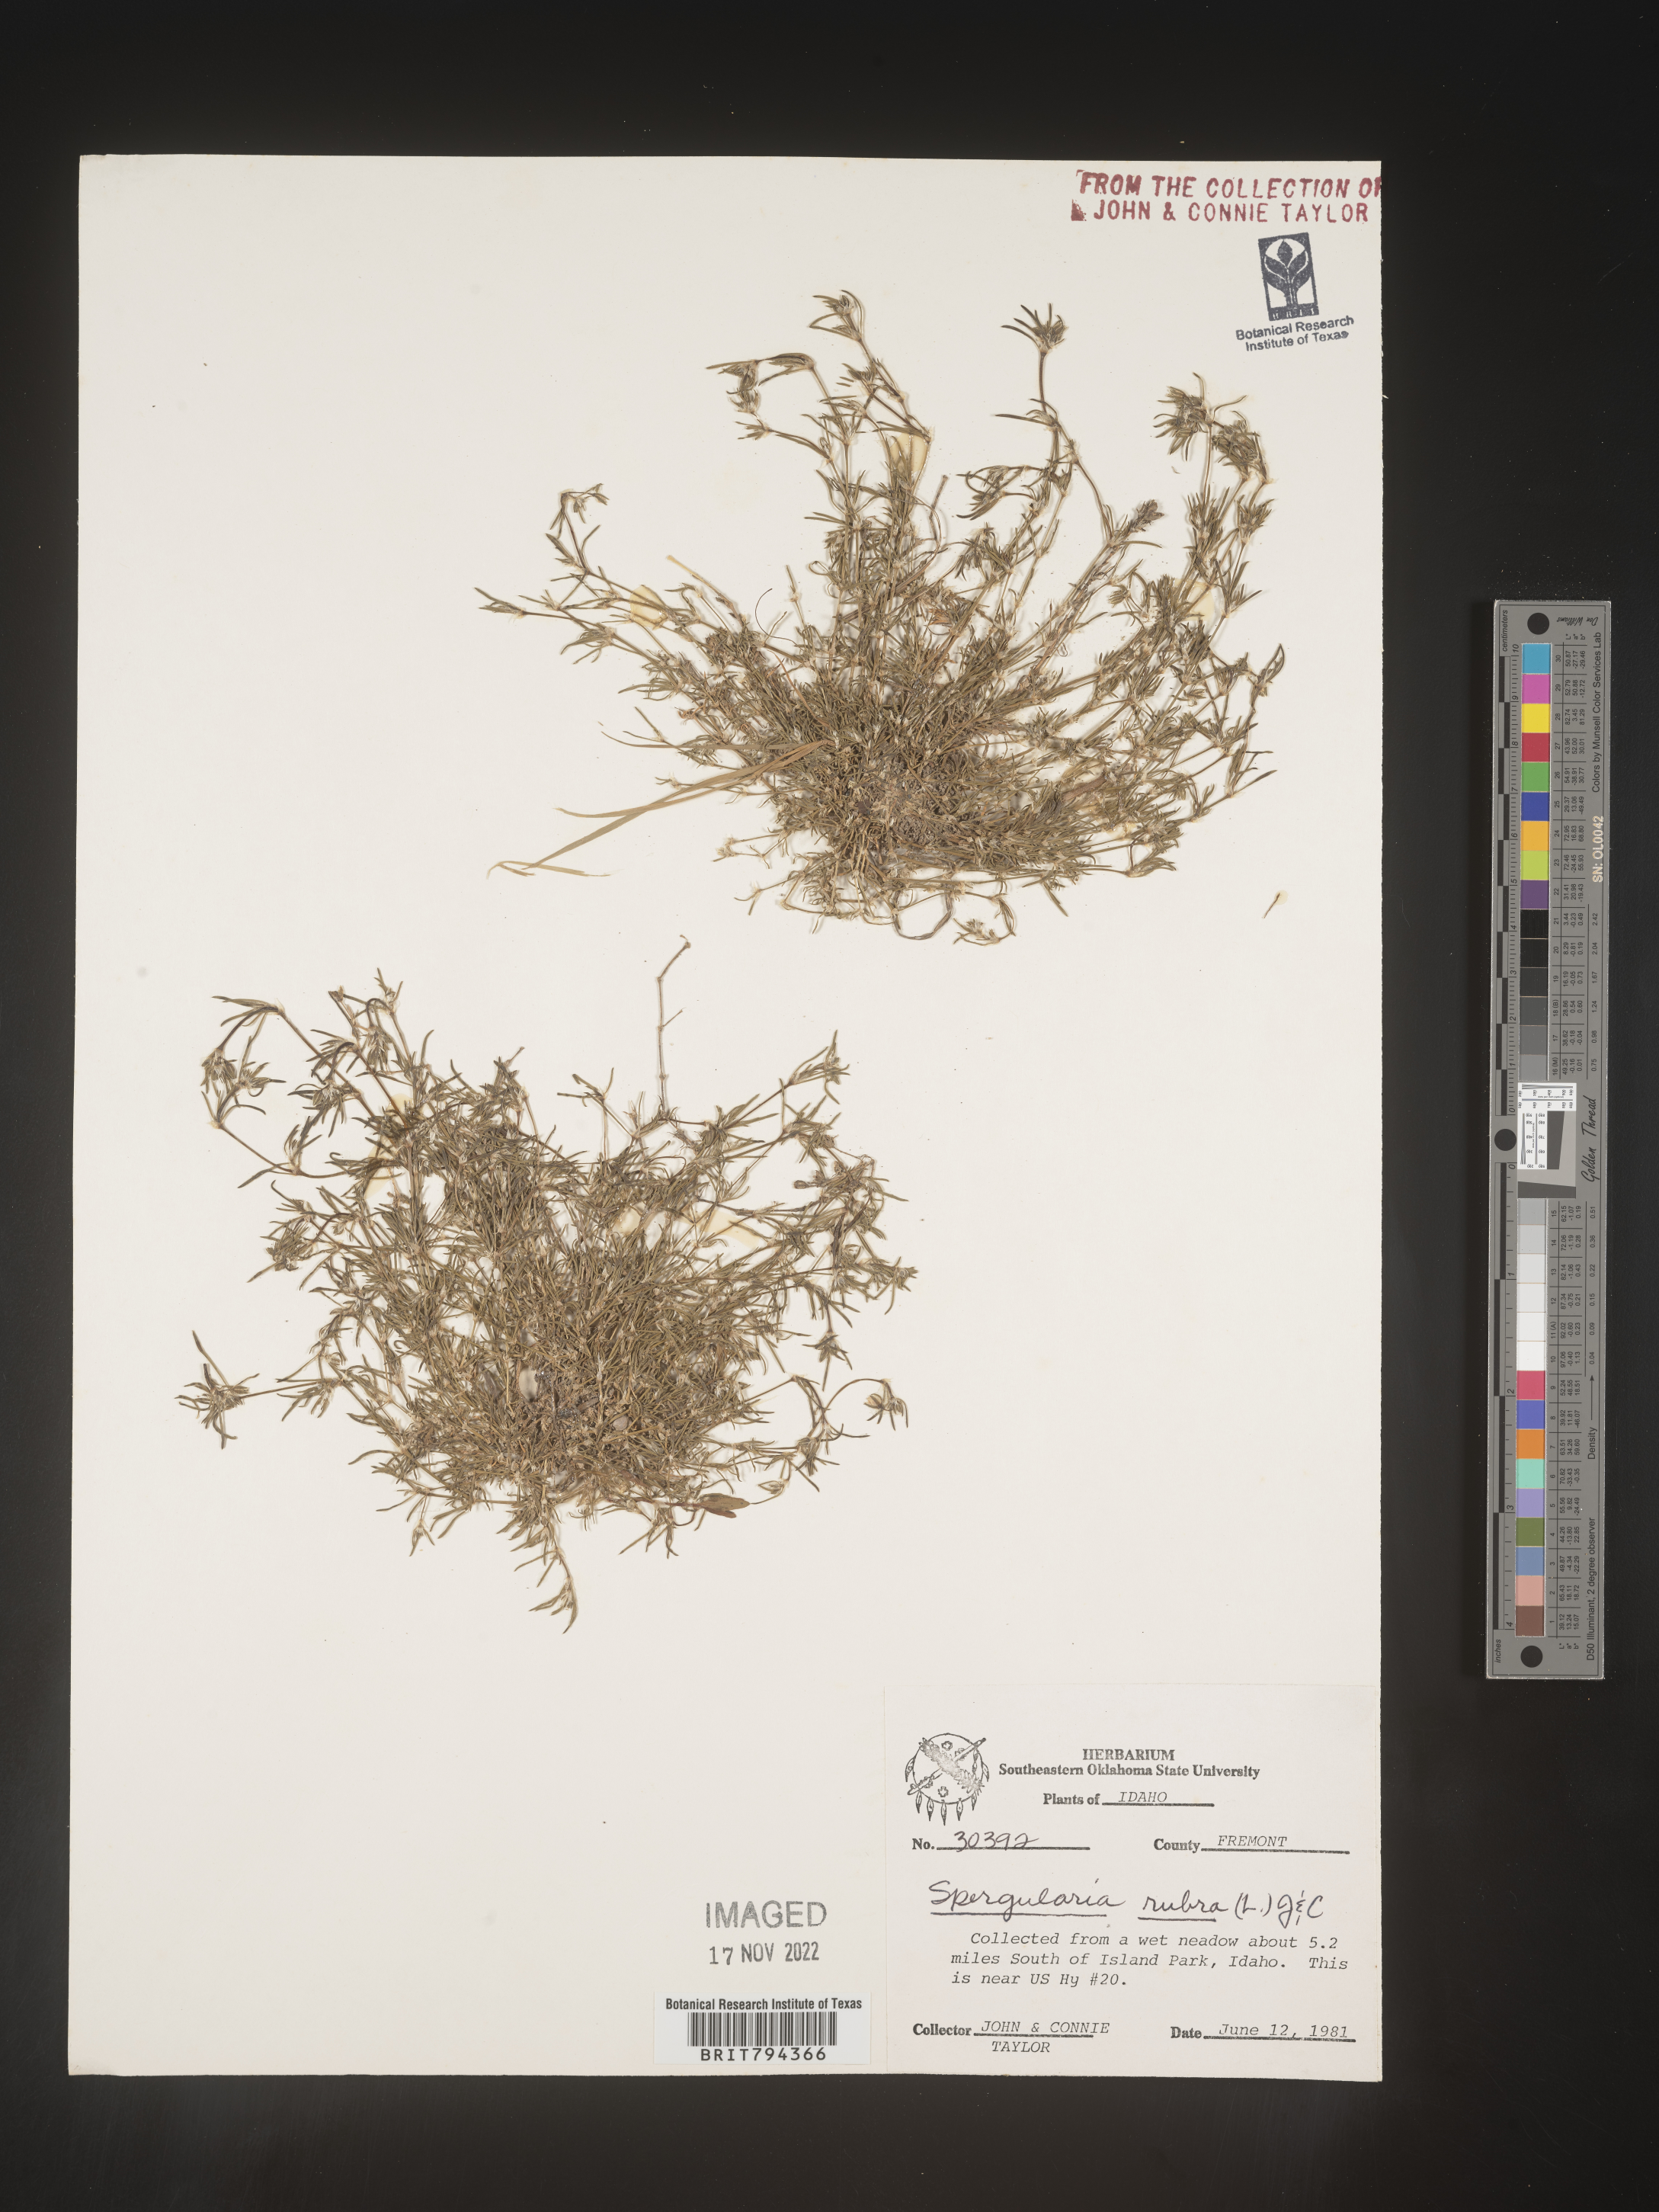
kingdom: Plantae
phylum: Tracheophyta
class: Magnoliopsida
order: Caryophyllales
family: Caryophyllaceae
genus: Spergularia
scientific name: Spergularia rubra
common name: Red sand-spurrey
